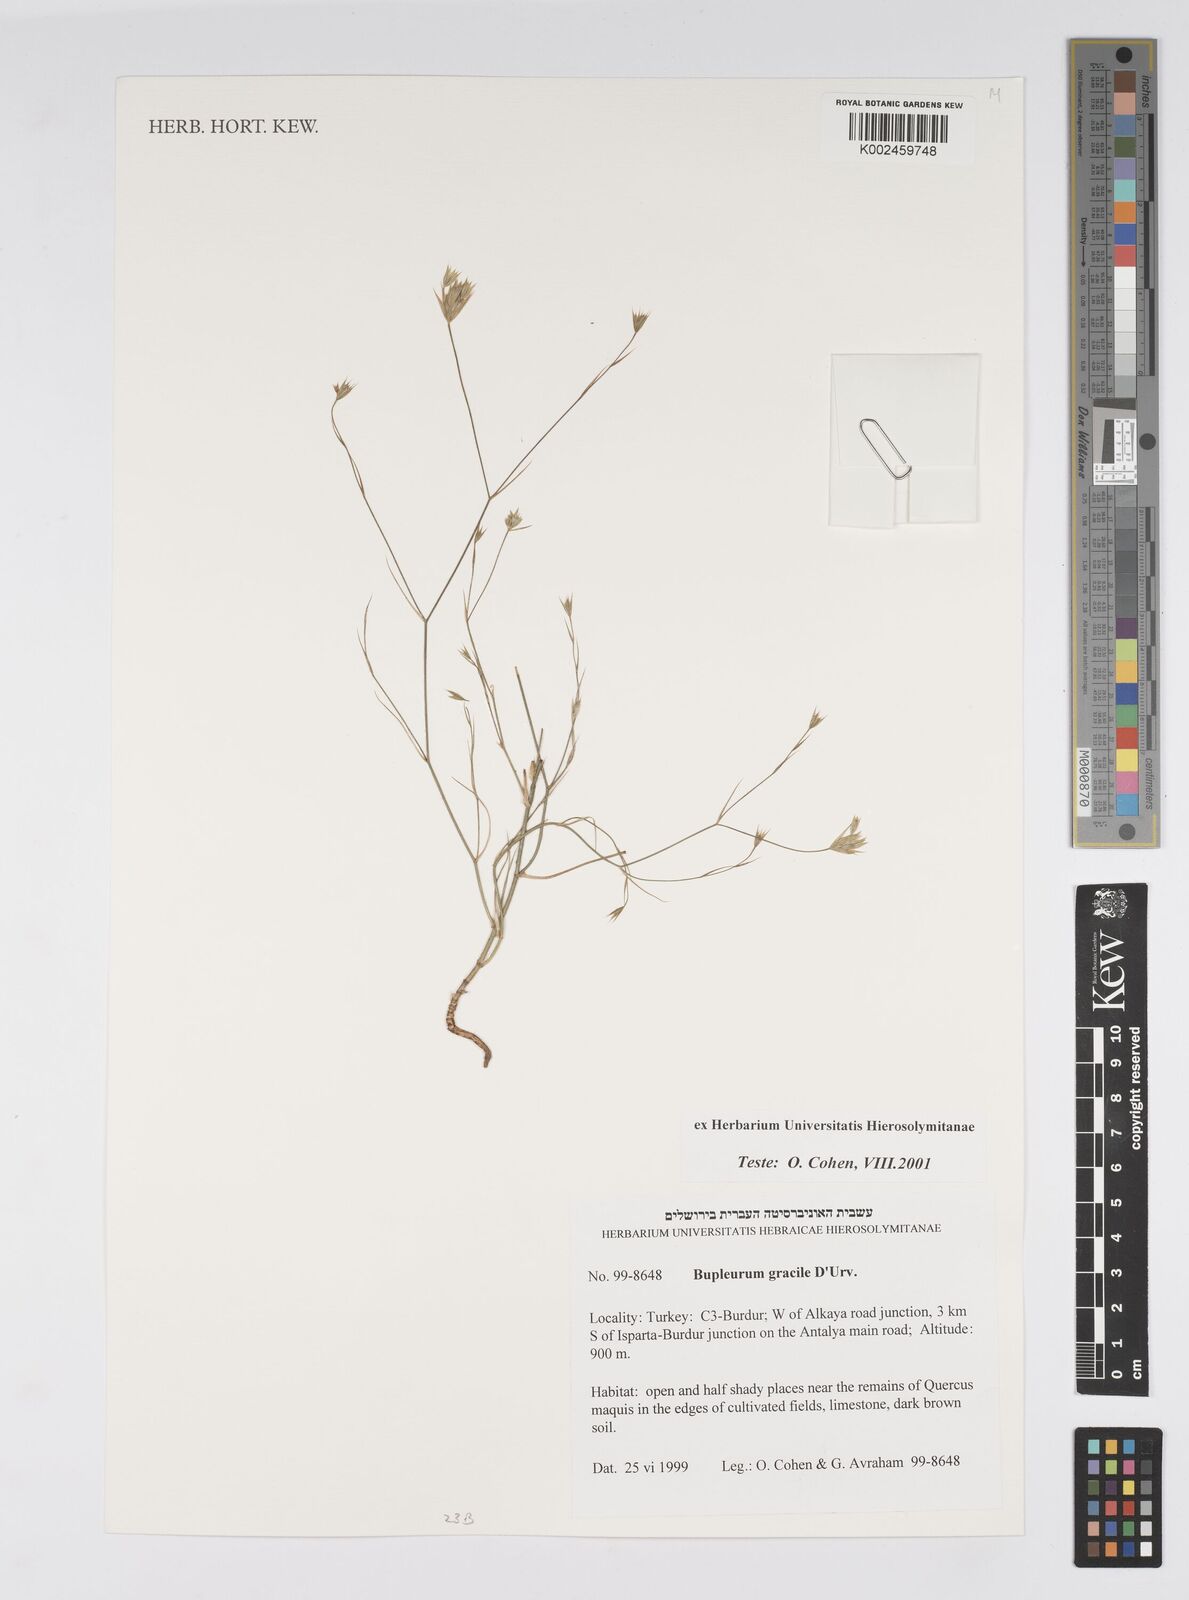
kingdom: Plantae
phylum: Tracheophyta
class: Magnoliopsida
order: Apiales
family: Apiaceae
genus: Bupleurum
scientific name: Bupleurum orientale
